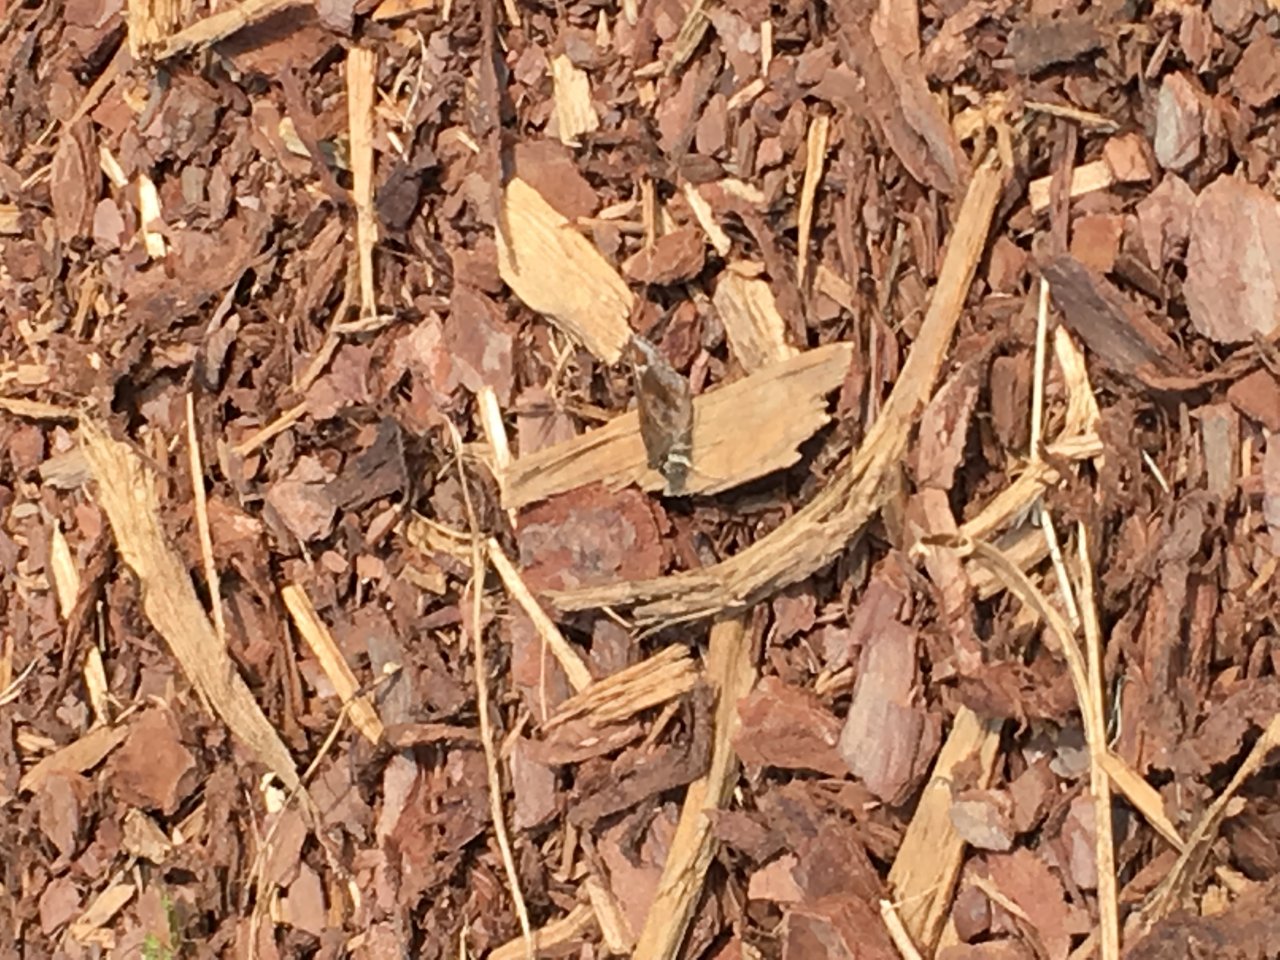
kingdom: Animalia
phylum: Arthropoda
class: Insecta
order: Lepidoptera
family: Hesperiidae
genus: Lerema
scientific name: Lerema accius
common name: Clouded Skipper
